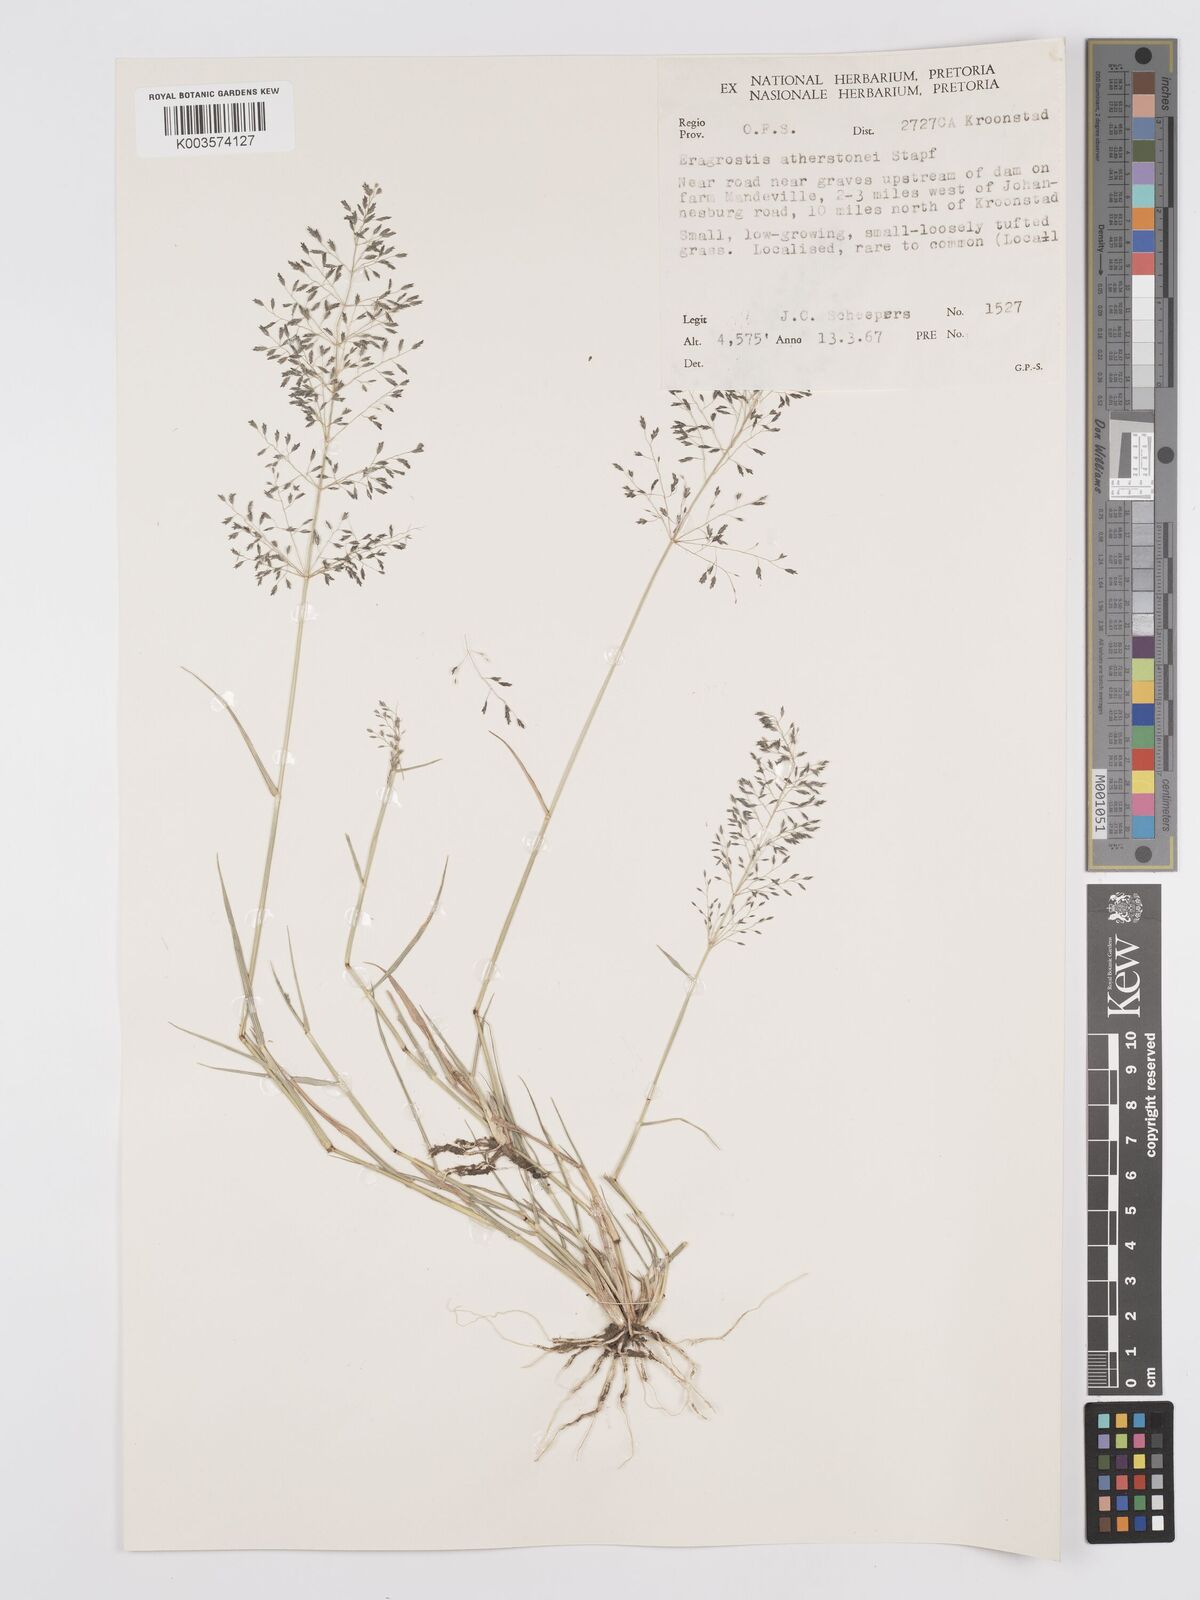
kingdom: Plantae
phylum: Tracheophyta
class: Liliopsida
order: Poales
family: Poaceae
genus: Eragrostis
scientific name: Eragrostis cylindriflora
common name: Cylinderflower lovegrass
